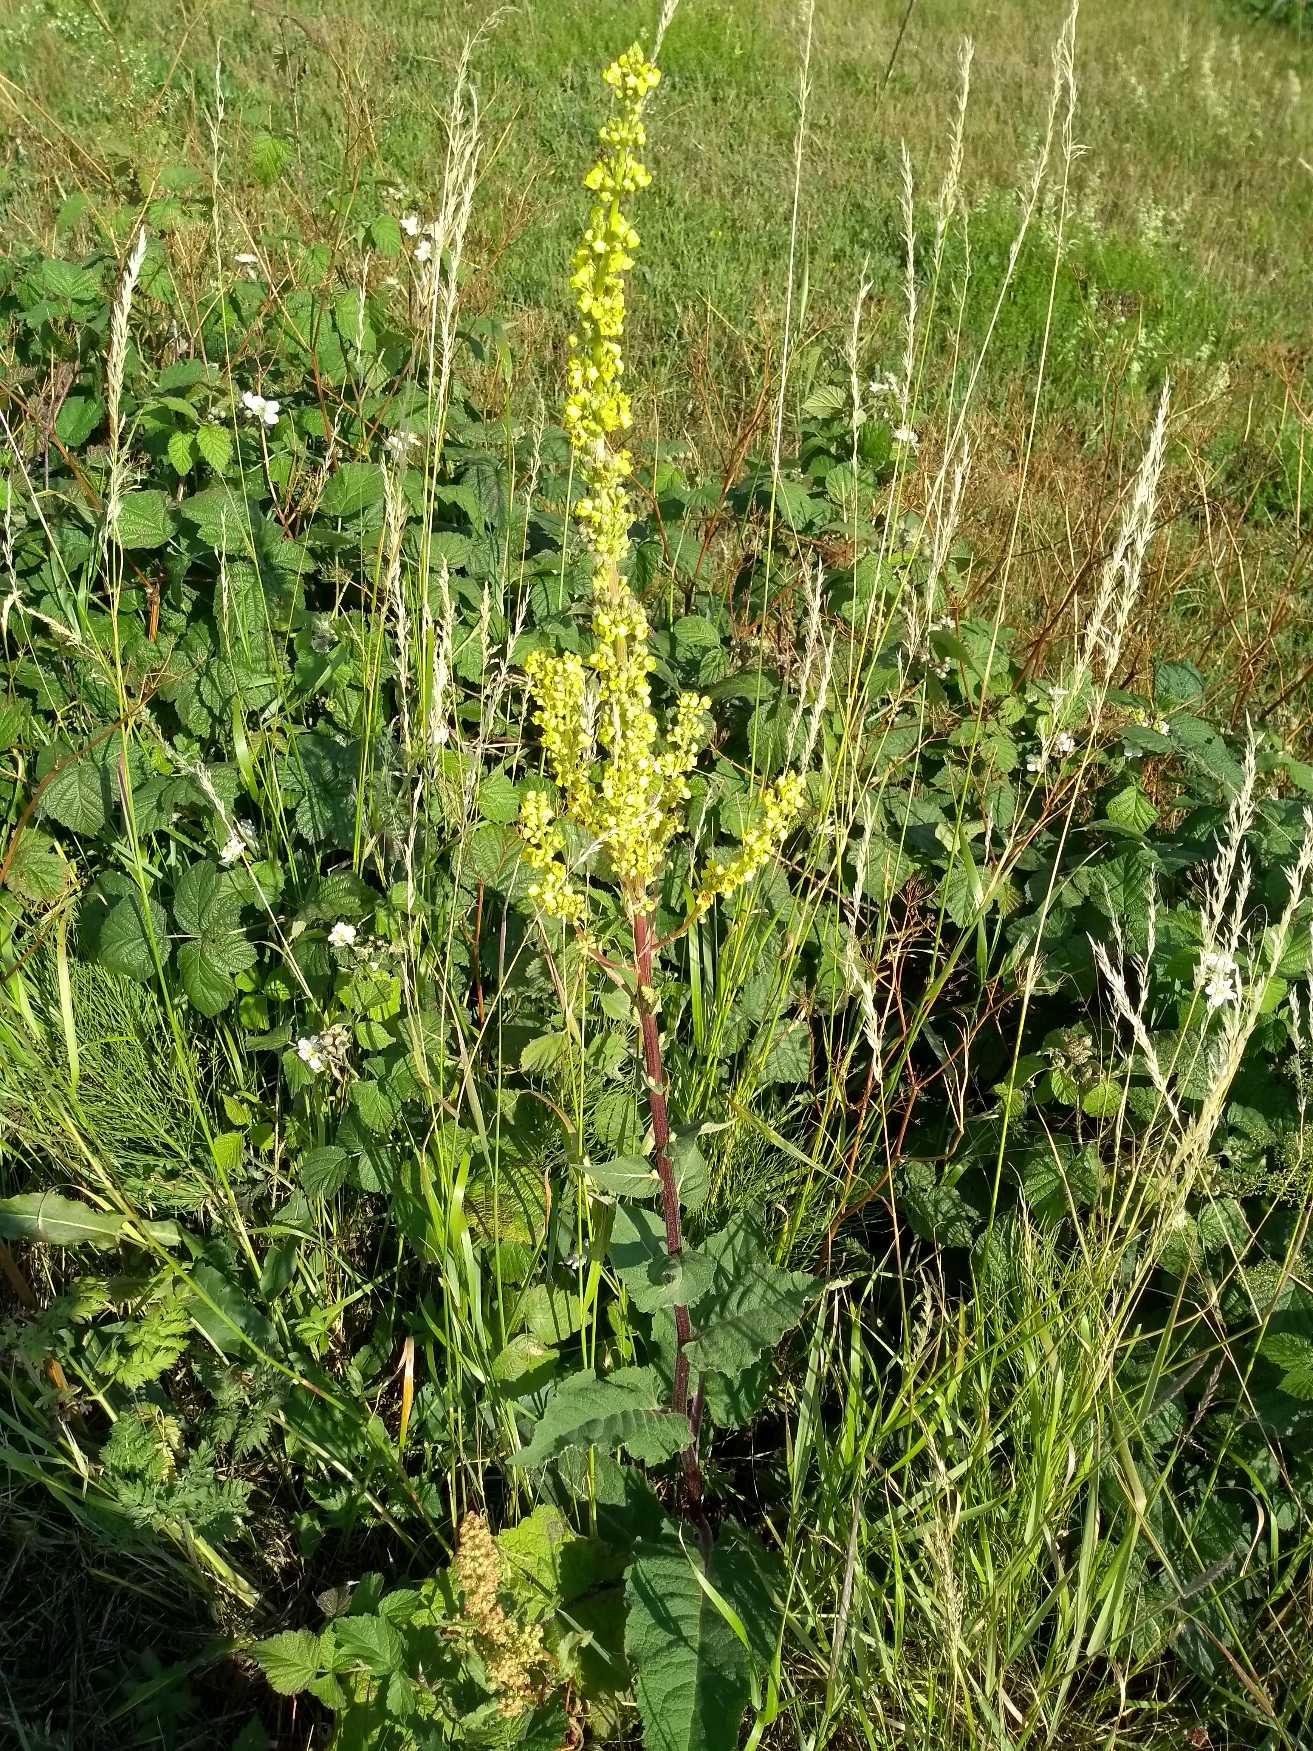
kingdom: Plantae
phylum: Tracheophyta
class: Magnoliopsida
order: Lamiales
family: Scrophulariaceae
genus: Verbascum
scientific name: Verbascum nigrum
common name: Mørk kongelys
